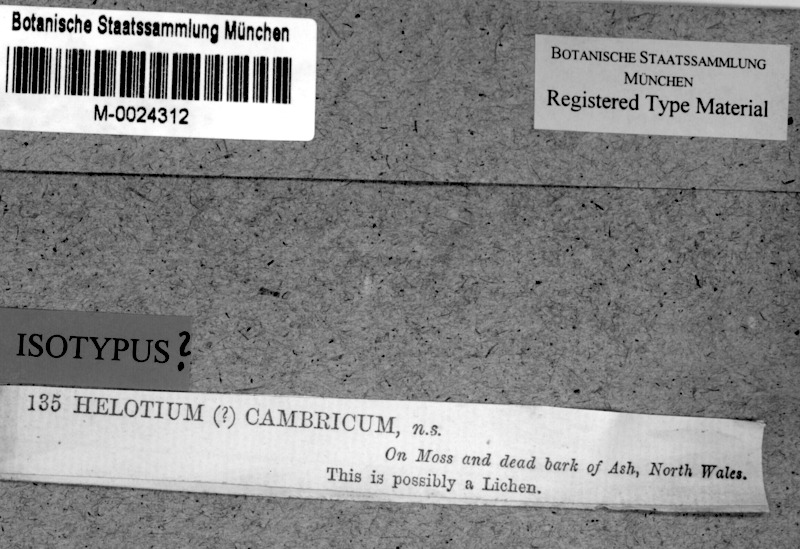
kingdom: Fungi
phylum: Ascomycota
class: Lecanoromycetes
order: Ostropales
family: Coenogoniaceae
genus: Coenogonium
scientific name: Coenogonium luteum
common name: Orange dimple lichen
